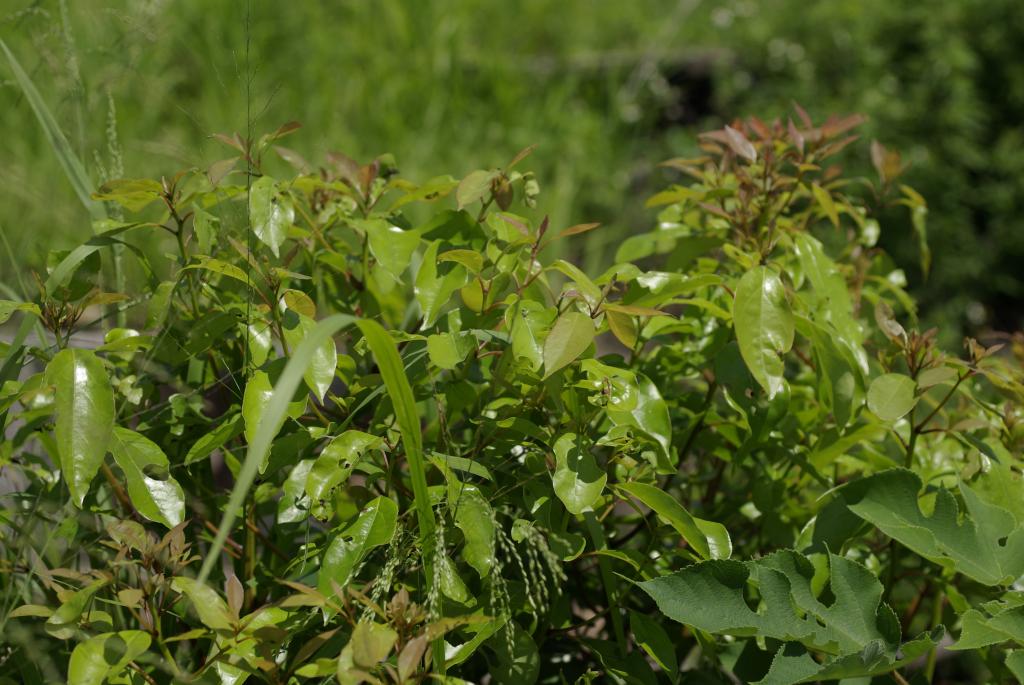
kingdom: Plantae
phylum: Tracheophyta
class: Magnoliopsida
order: Laurales
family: Lauraceae
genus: Cinnamomum
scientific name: Cinnamomum camphora
